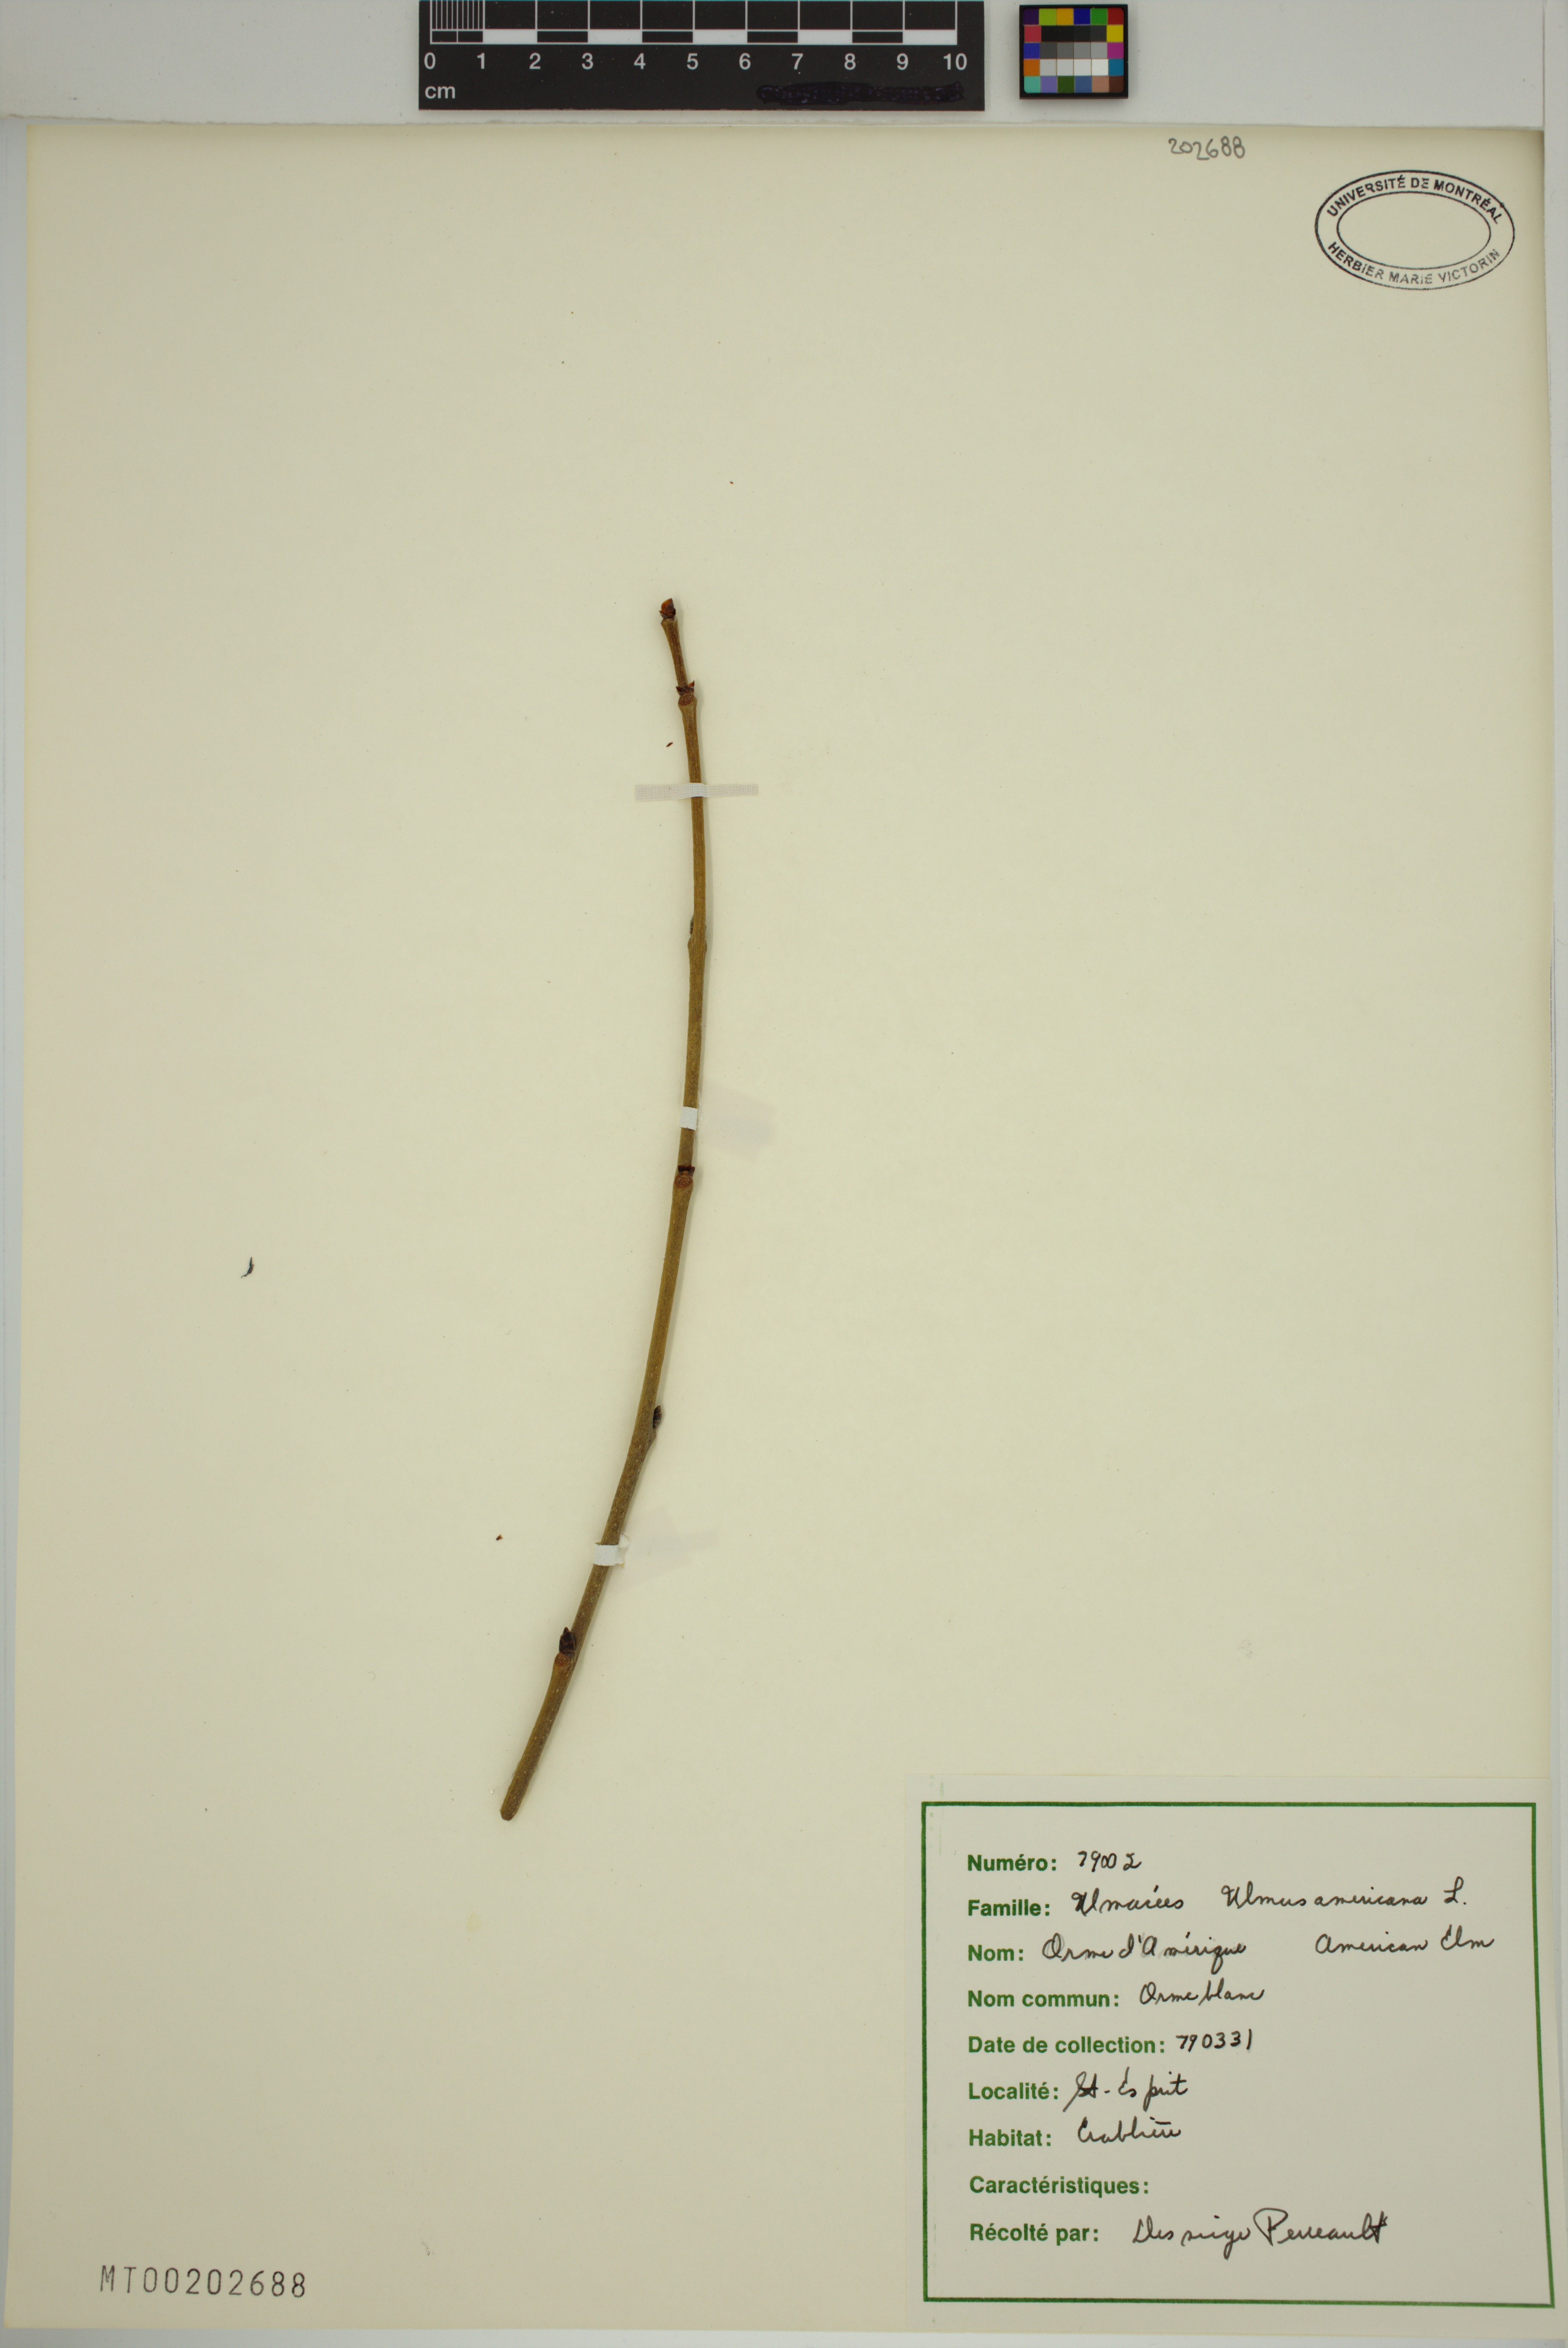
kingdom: Plantae
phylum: Tracheophyta
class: Magnoliopsida
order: Rosales
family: Ulmaceae
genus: Ulmus
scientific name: Ulmus americana
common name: American elm
